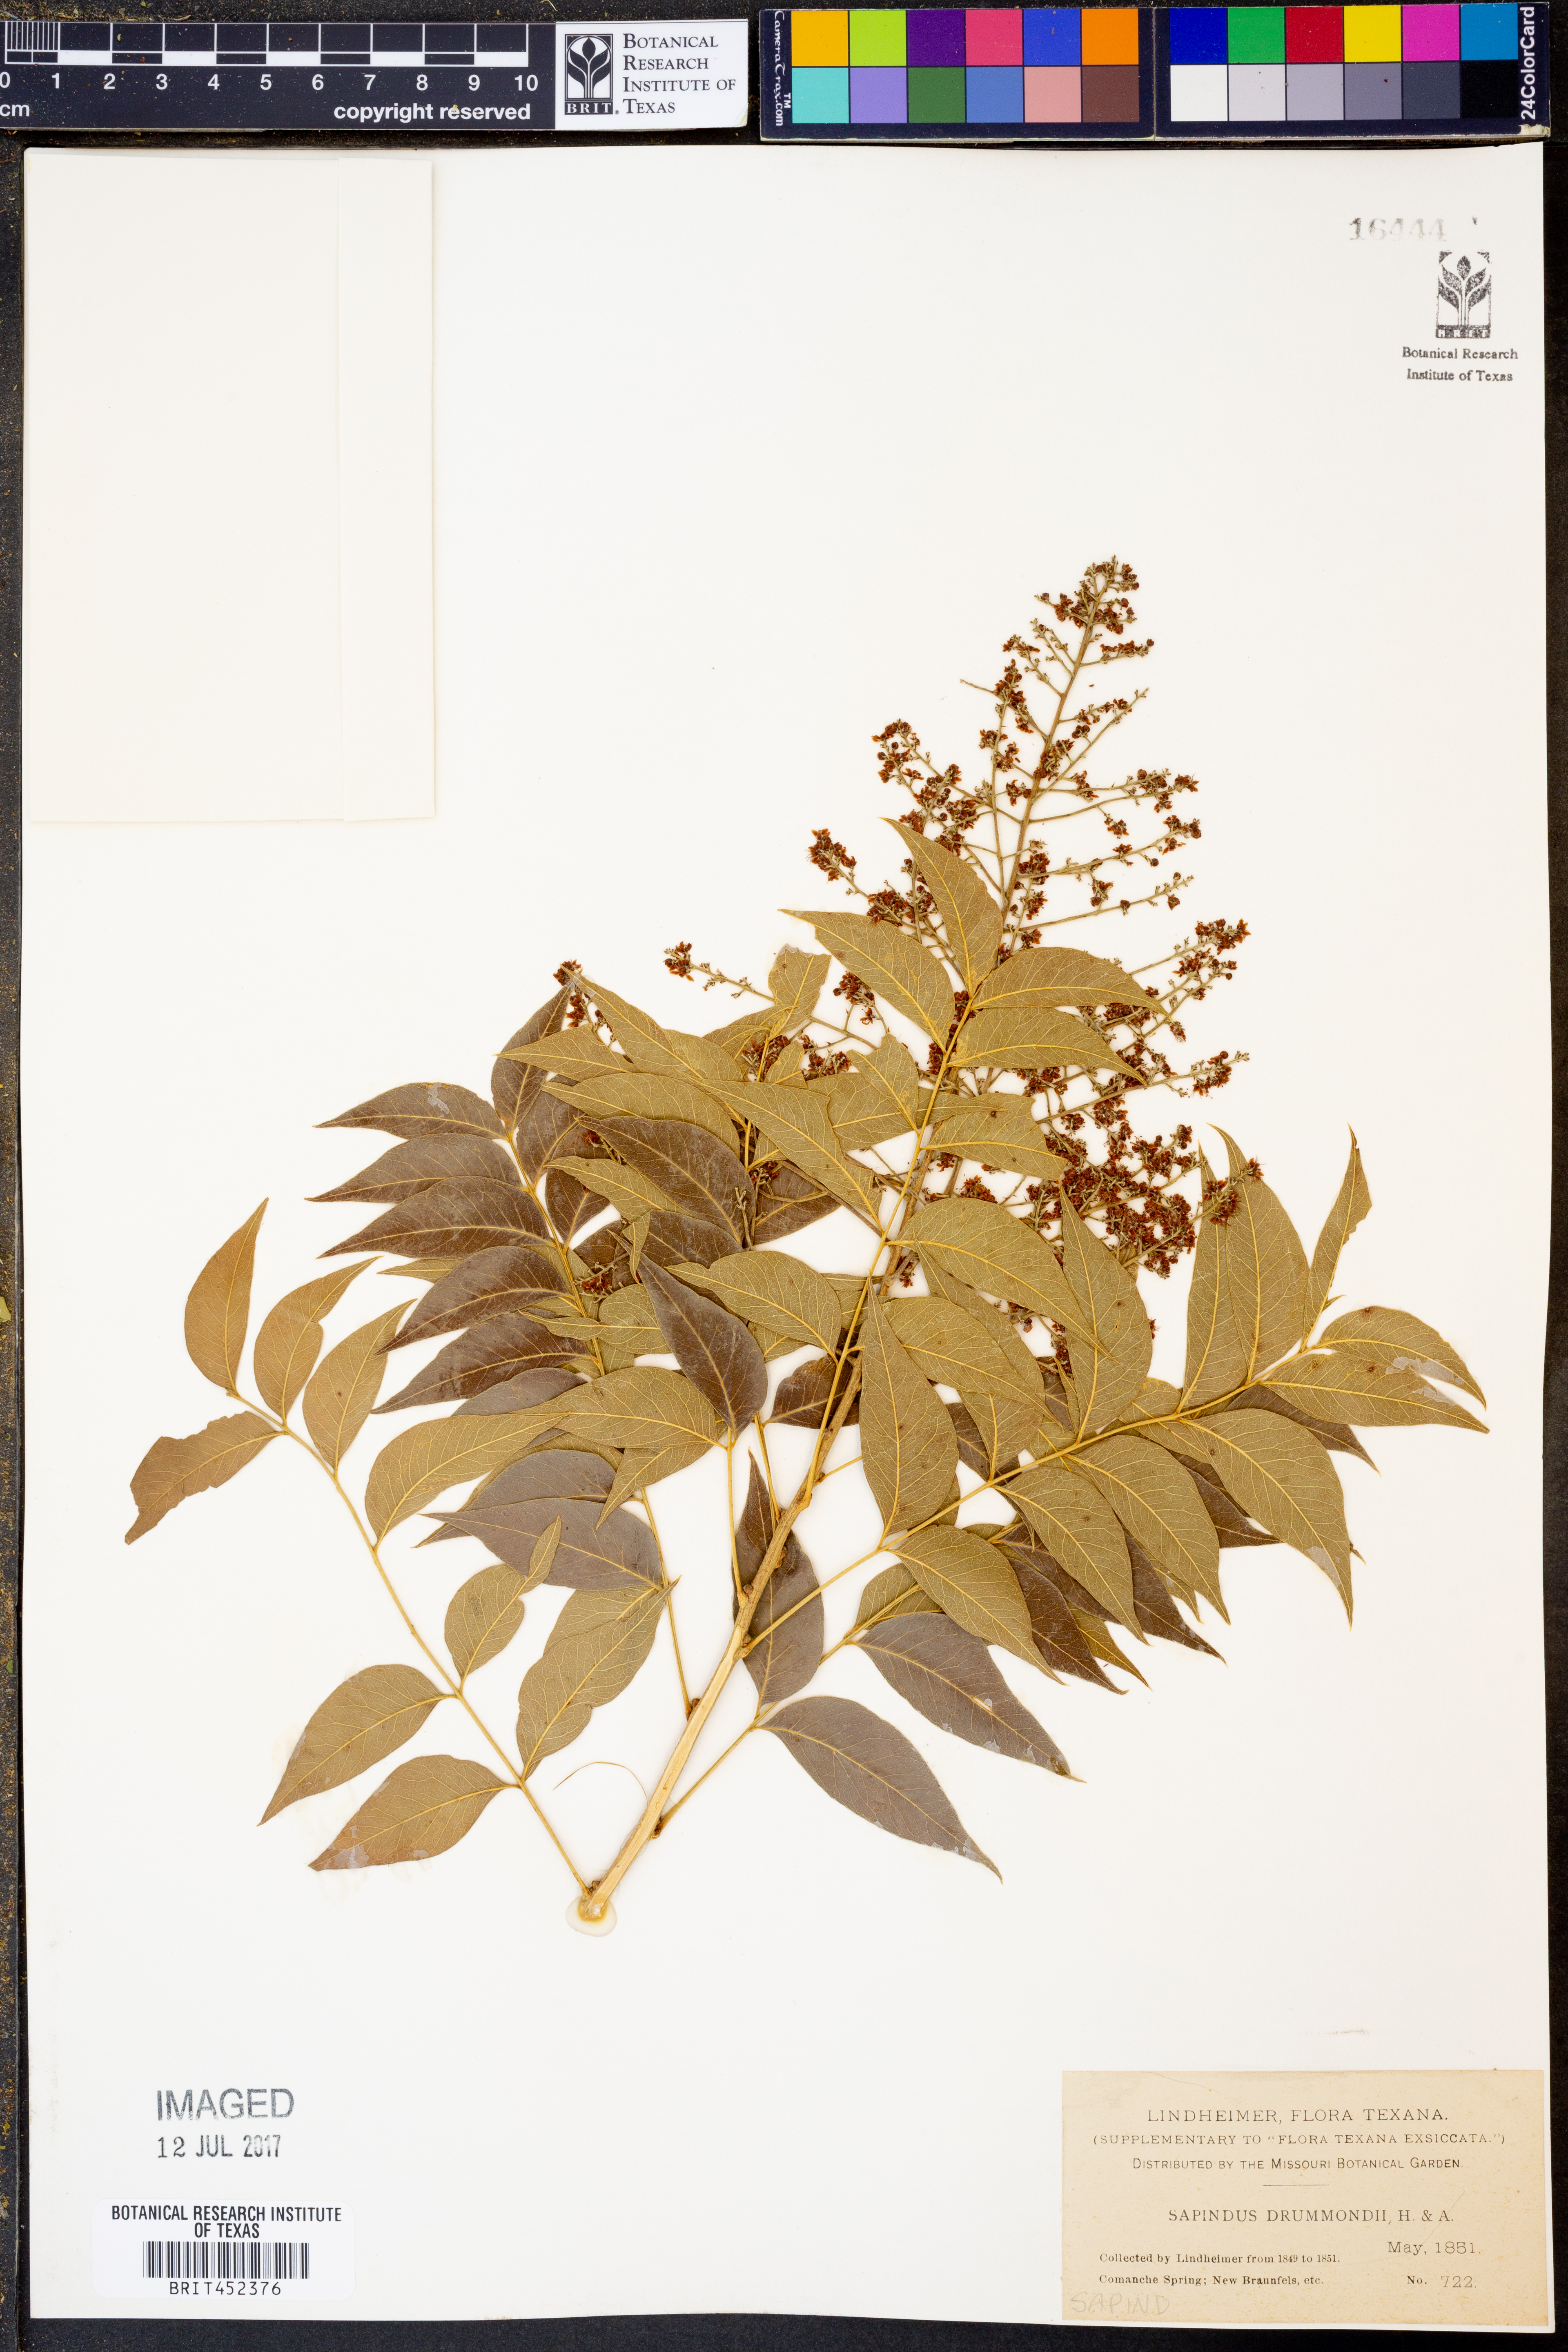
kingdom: Plantae
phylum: Tracheophyta
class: Magnoliopsida
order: Sapindales
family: Sapindaceae
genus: Sapindus
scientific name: Sapindus drummondii
